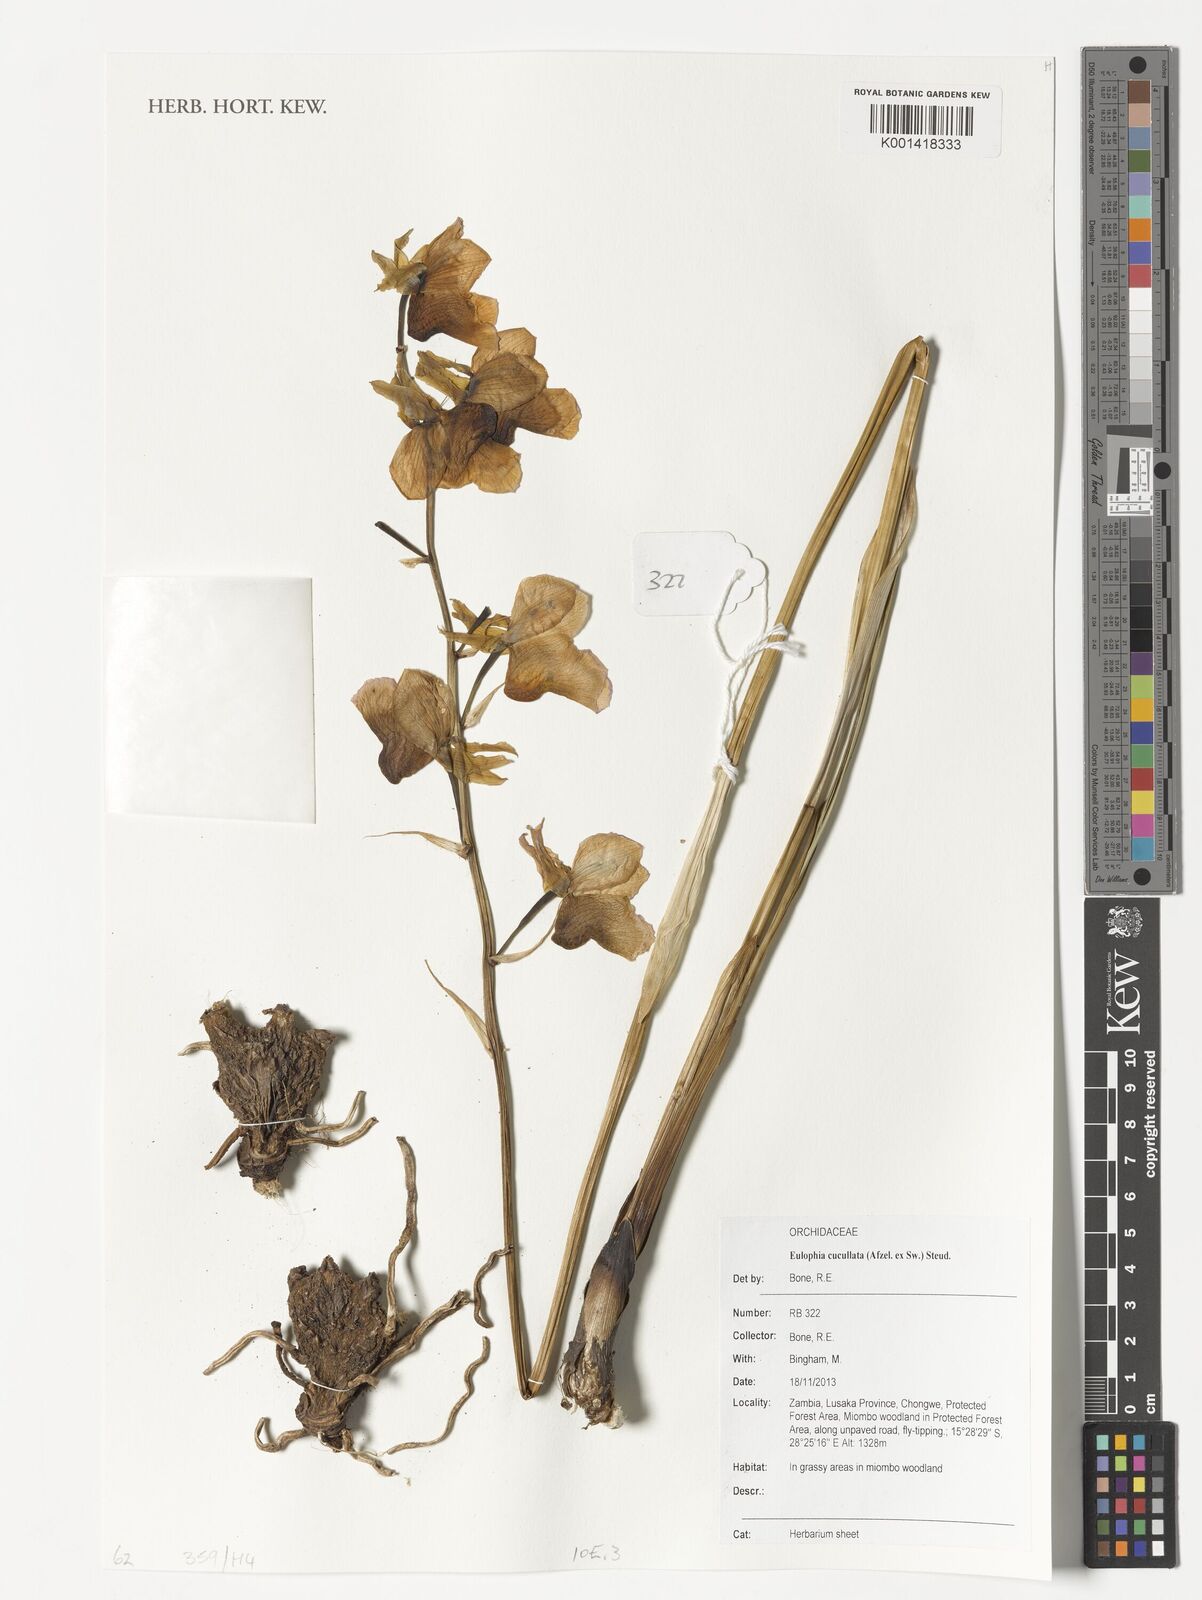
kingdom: Plantae
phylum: Tracheophyta
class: Liliopsida
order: Asparagales
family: Orchidaceae
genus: Eulophia
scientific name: Eulophia cucullata
